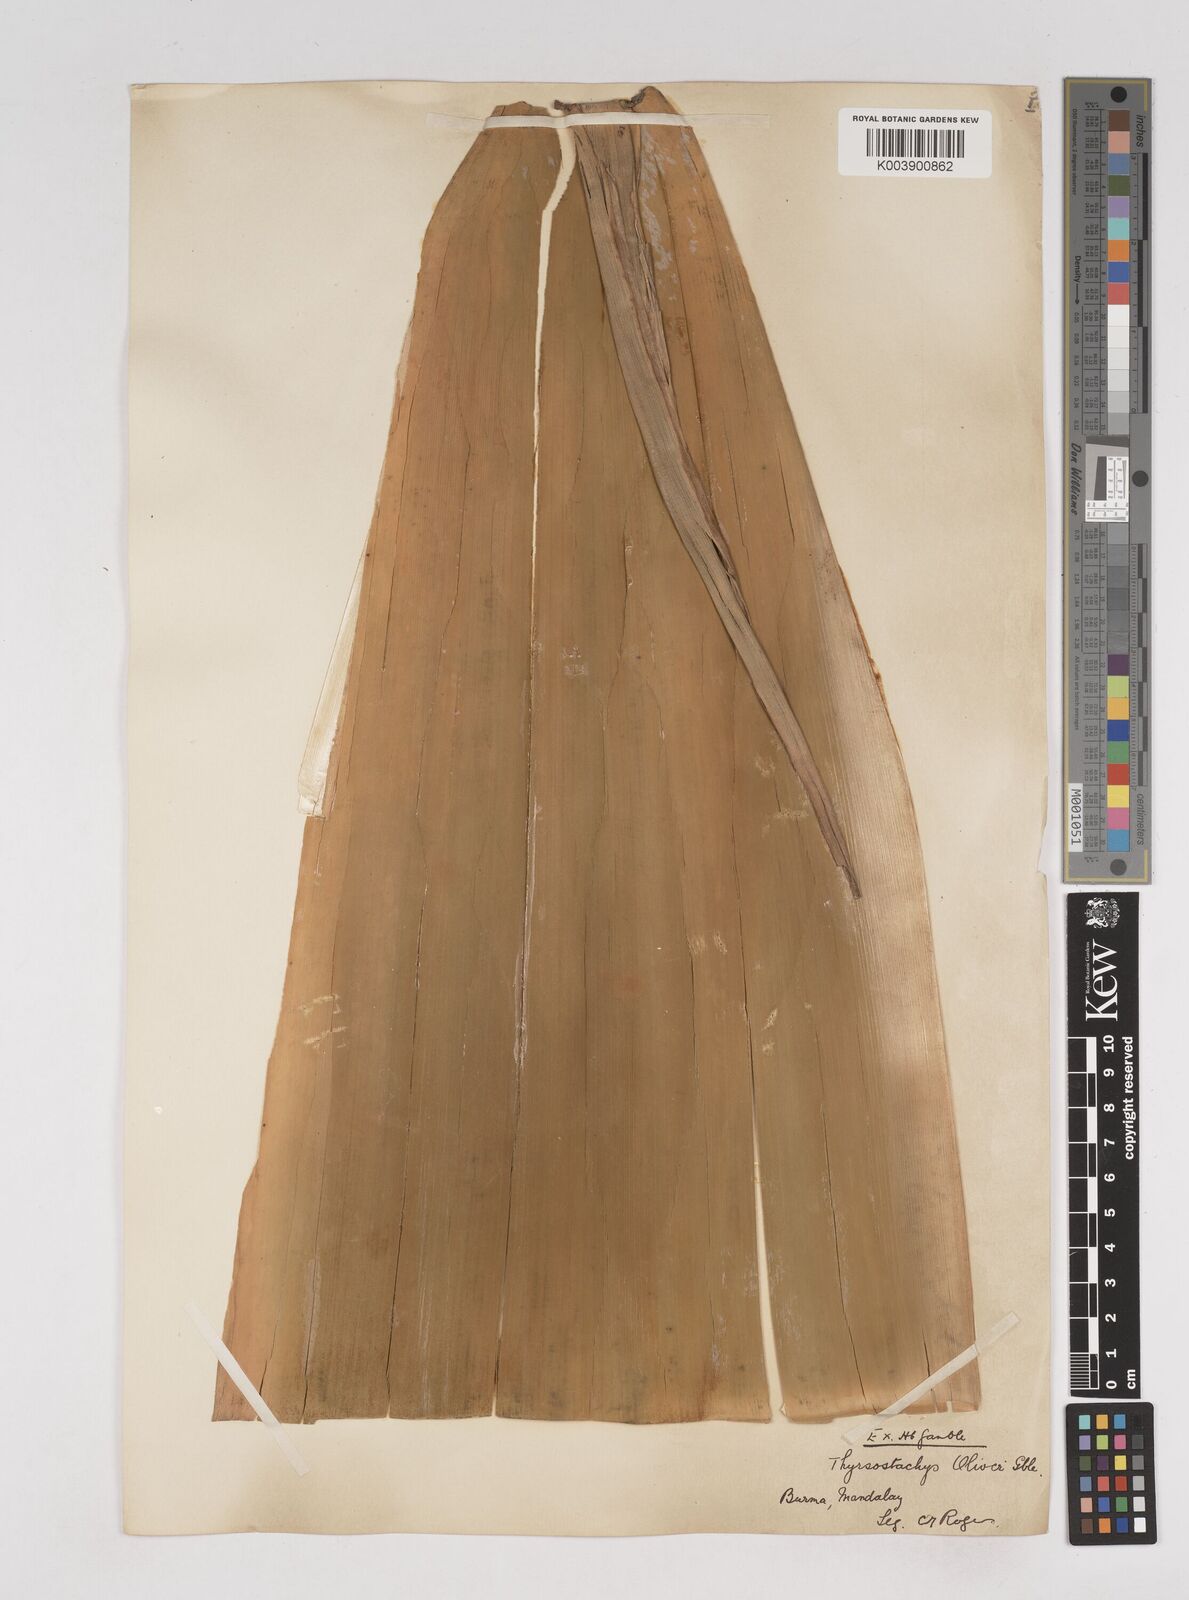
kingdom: Plantae
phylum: Tracheophyta
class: Liliopsida
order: Poales
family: Poaceae
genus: Thyrsostachys
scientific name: Thyrsostachys oliveri
